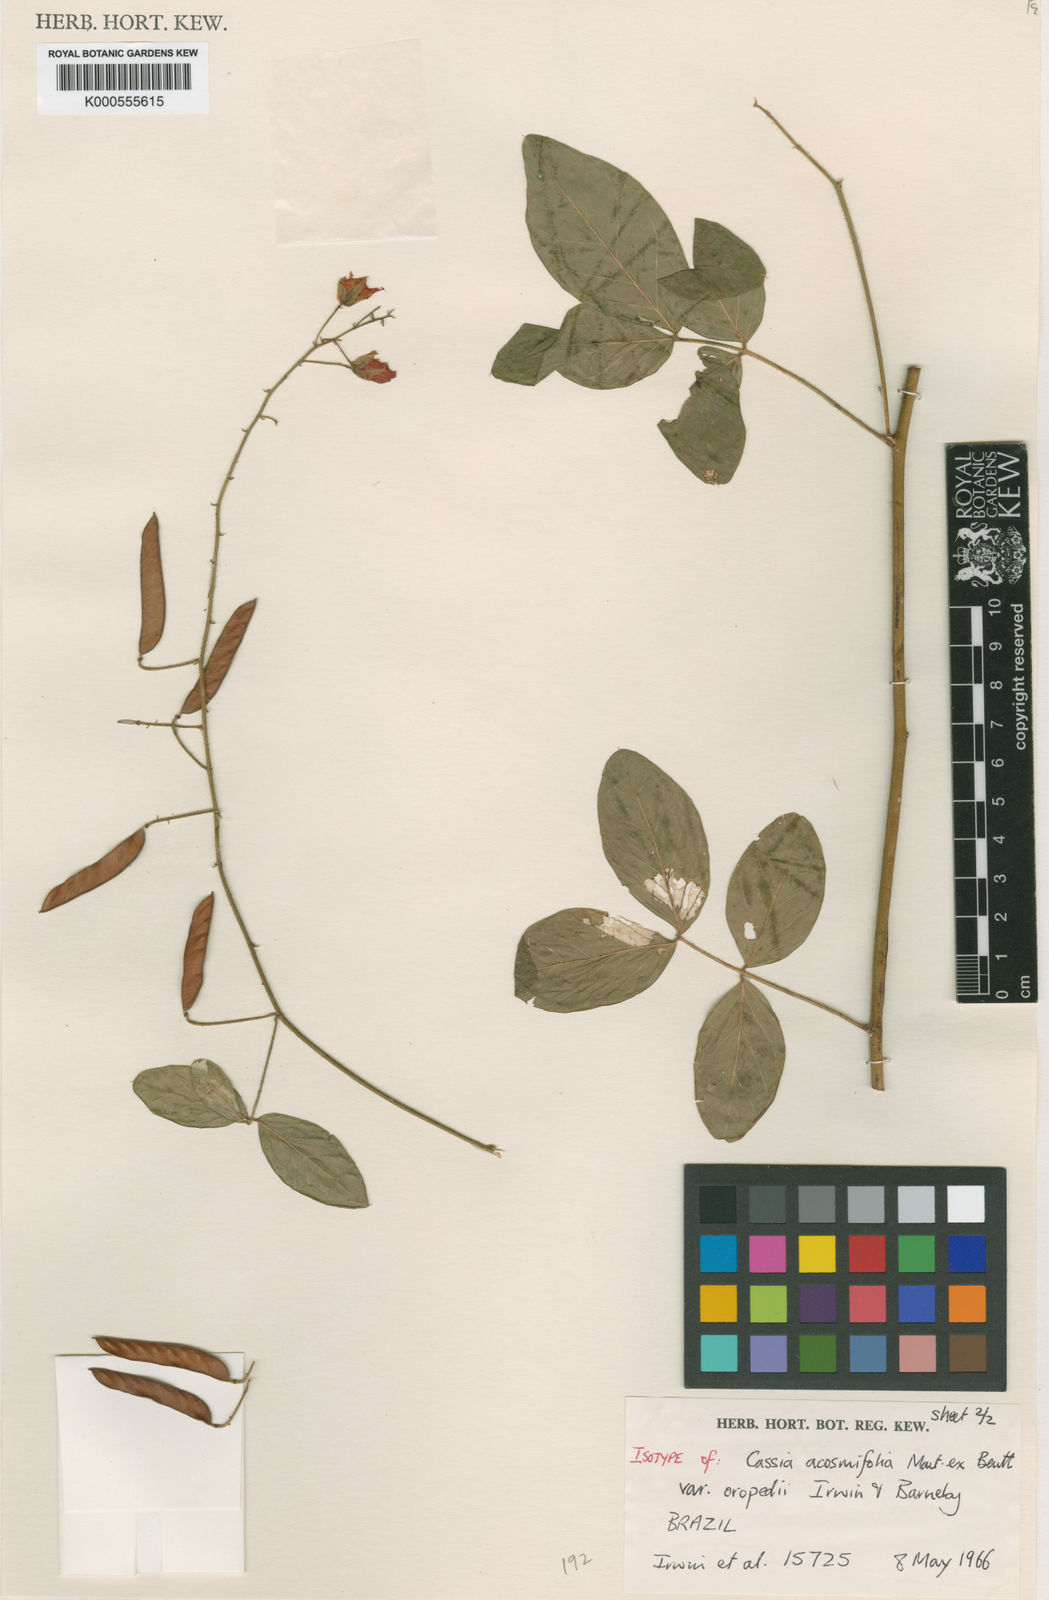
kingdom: Plantae
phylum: Tracheophyta
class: Magnoliopsida
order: Fabales
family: Fabaceae
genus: Chamaecrista
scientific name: Chamaecrista acosmifolia
